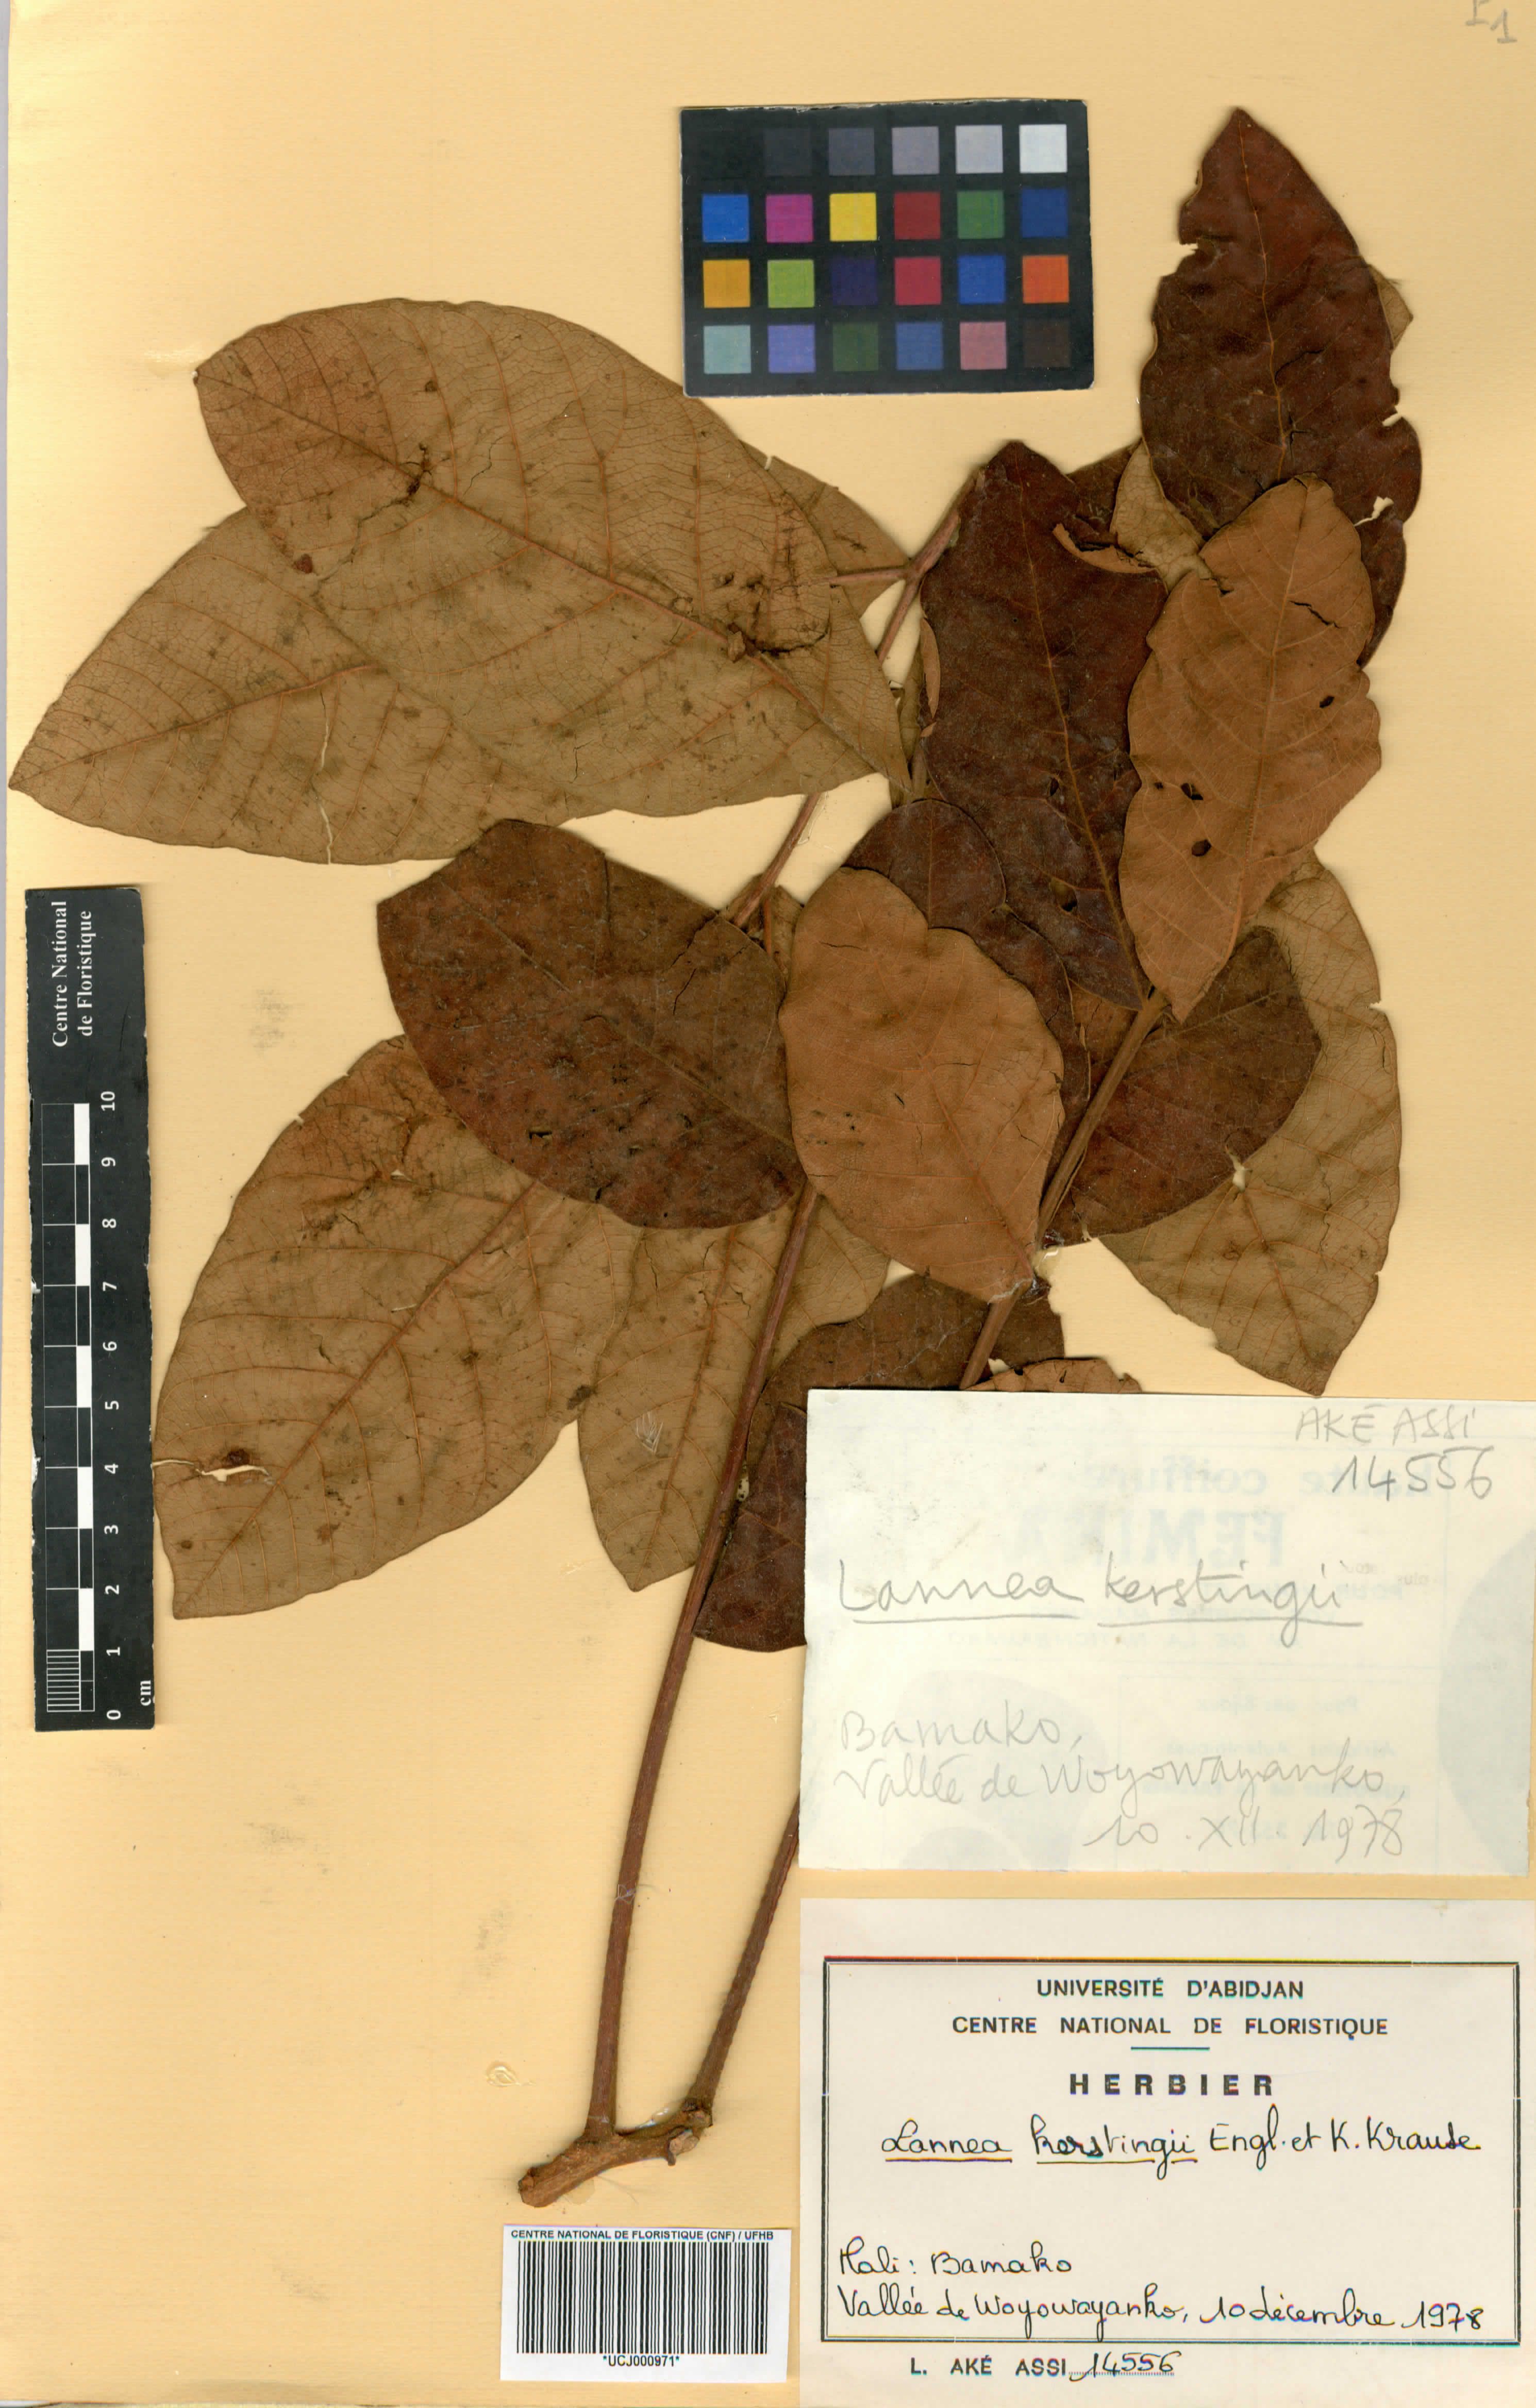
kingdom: Plantae
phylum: Tracheophyta
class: Magnoliopsida
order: Sapindales
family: Anacardiaceae
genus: Lannea
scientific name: Lannea barteri
